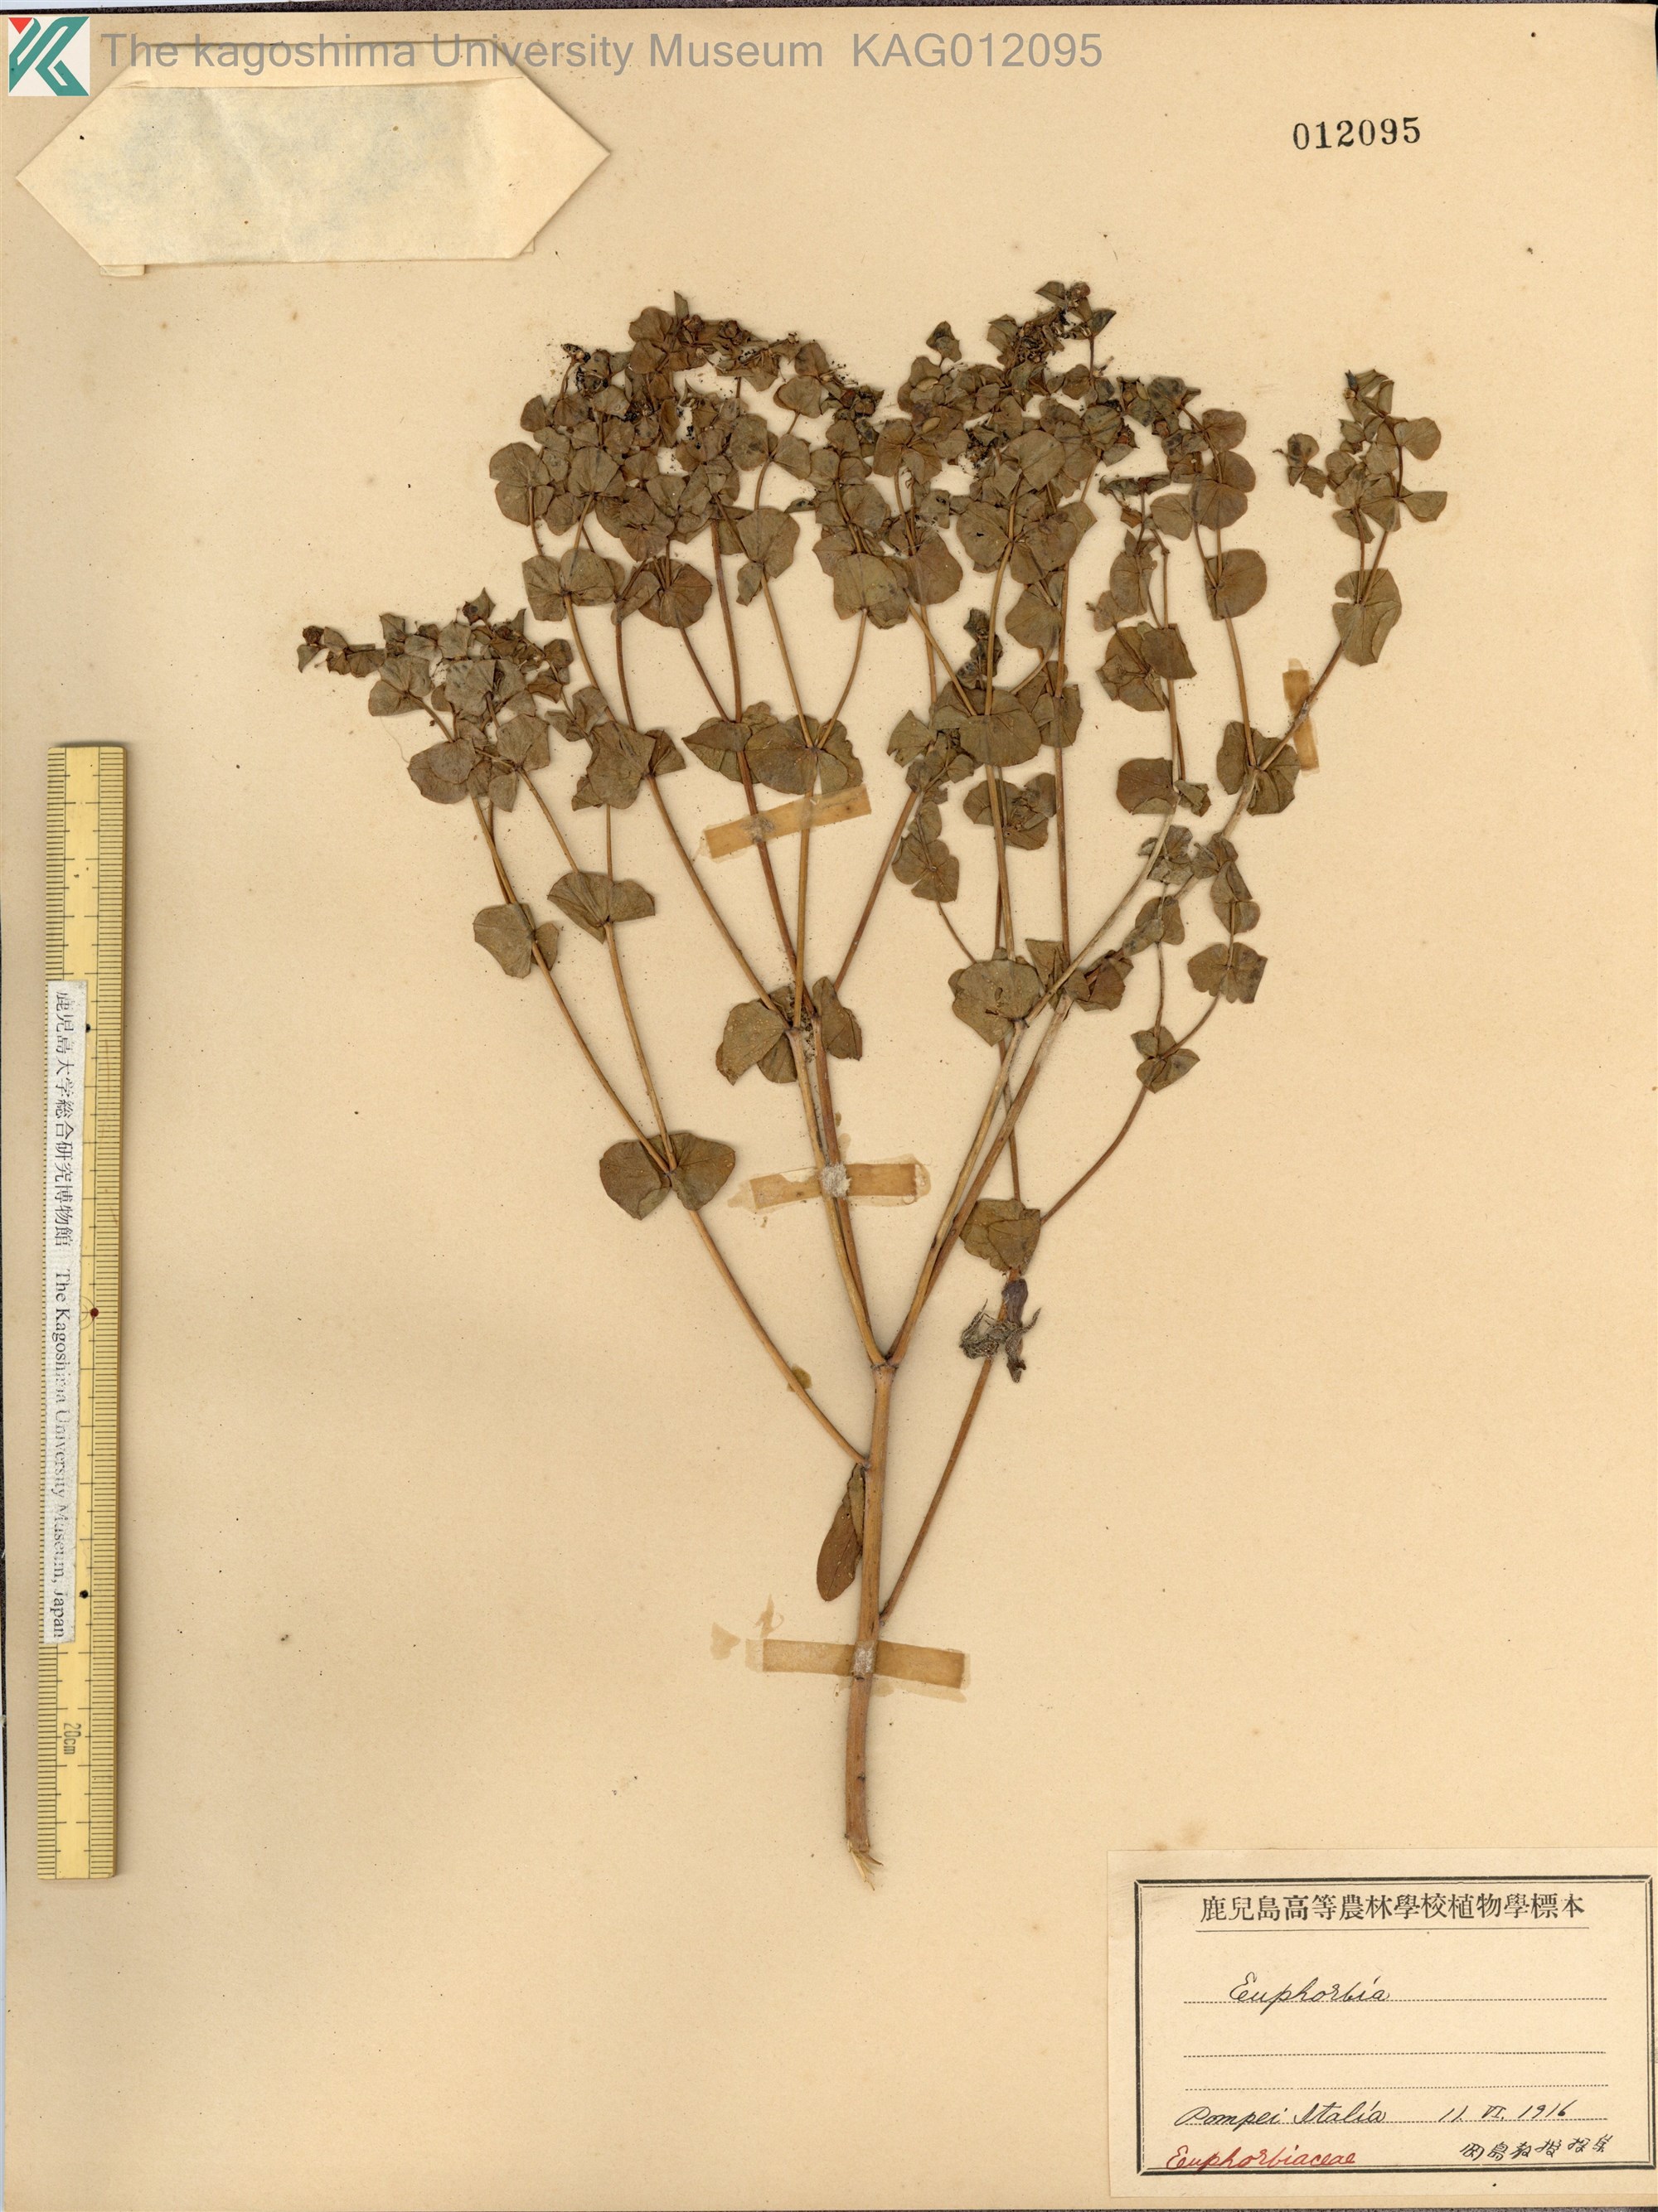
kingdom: Plantae
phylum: Tracheophyta
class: Magnoliopsida
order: Malpighiales
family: Euphorbiaceae
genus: Euphorbia
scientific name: Euphorbia peplus
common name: Petty spurge
